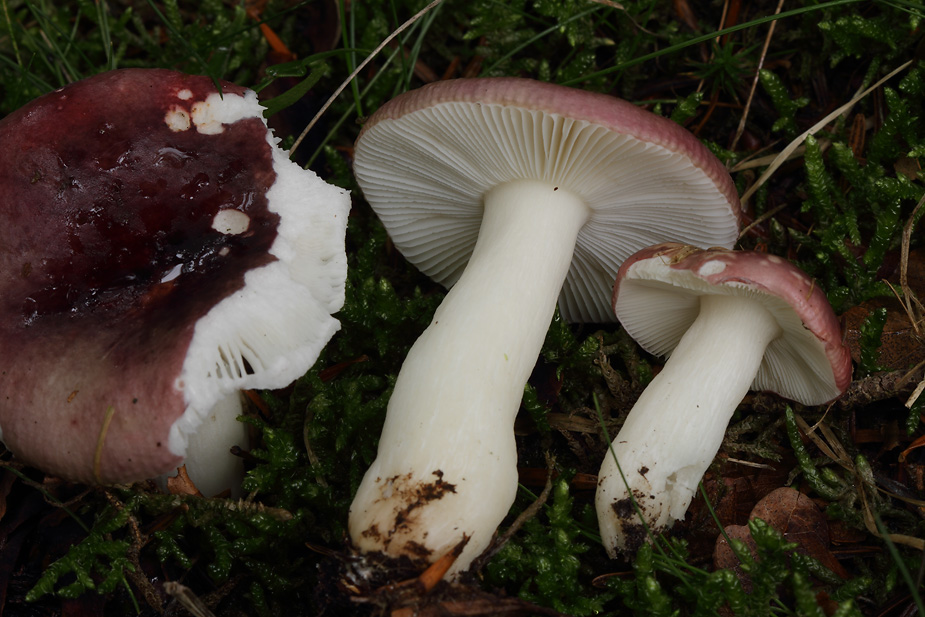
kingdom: Fungi
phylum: Basidiomycota
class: Agaricomycetes
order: Russulales
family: Russulaceae
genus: Russula
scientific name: Russula fragilis
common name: savbladet skørhat
